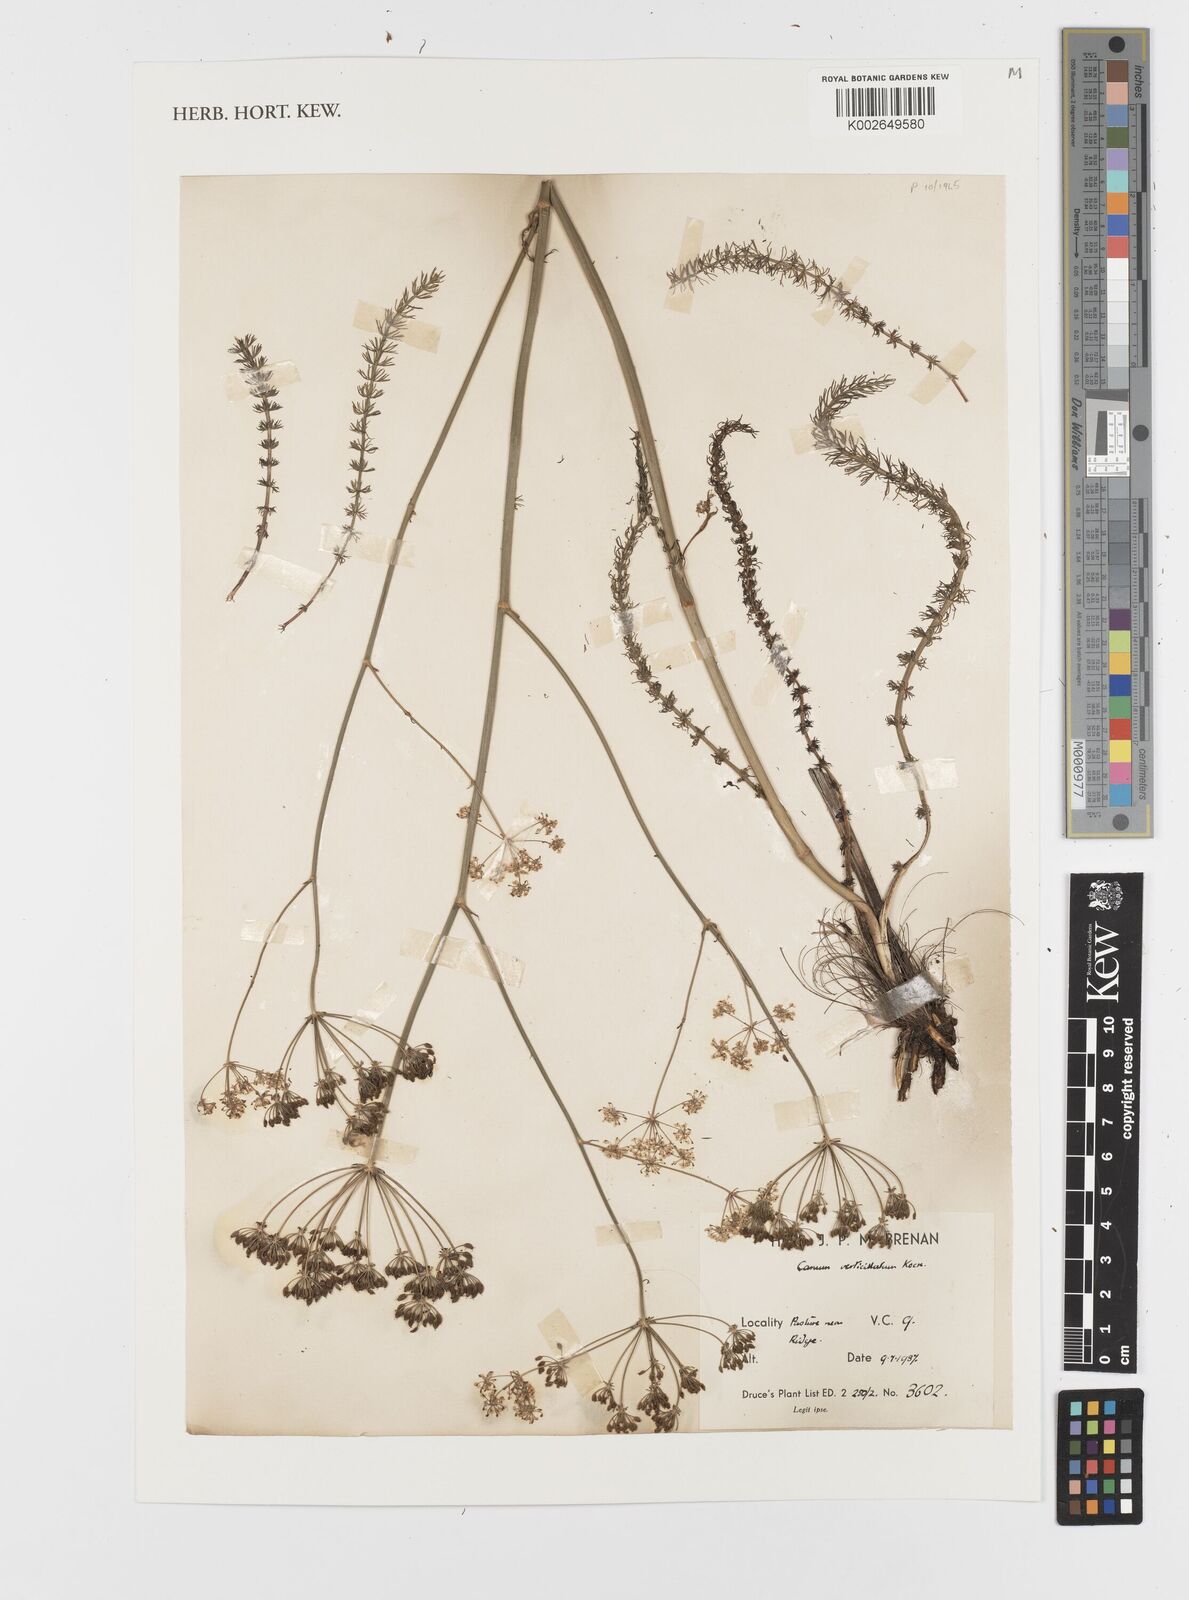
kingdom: Plantae
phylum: Tracheophyta
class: Magnoliopsida
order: Apiales
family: Apiaceae
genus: Trocdaris
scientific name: Trocdaris verticillatum
